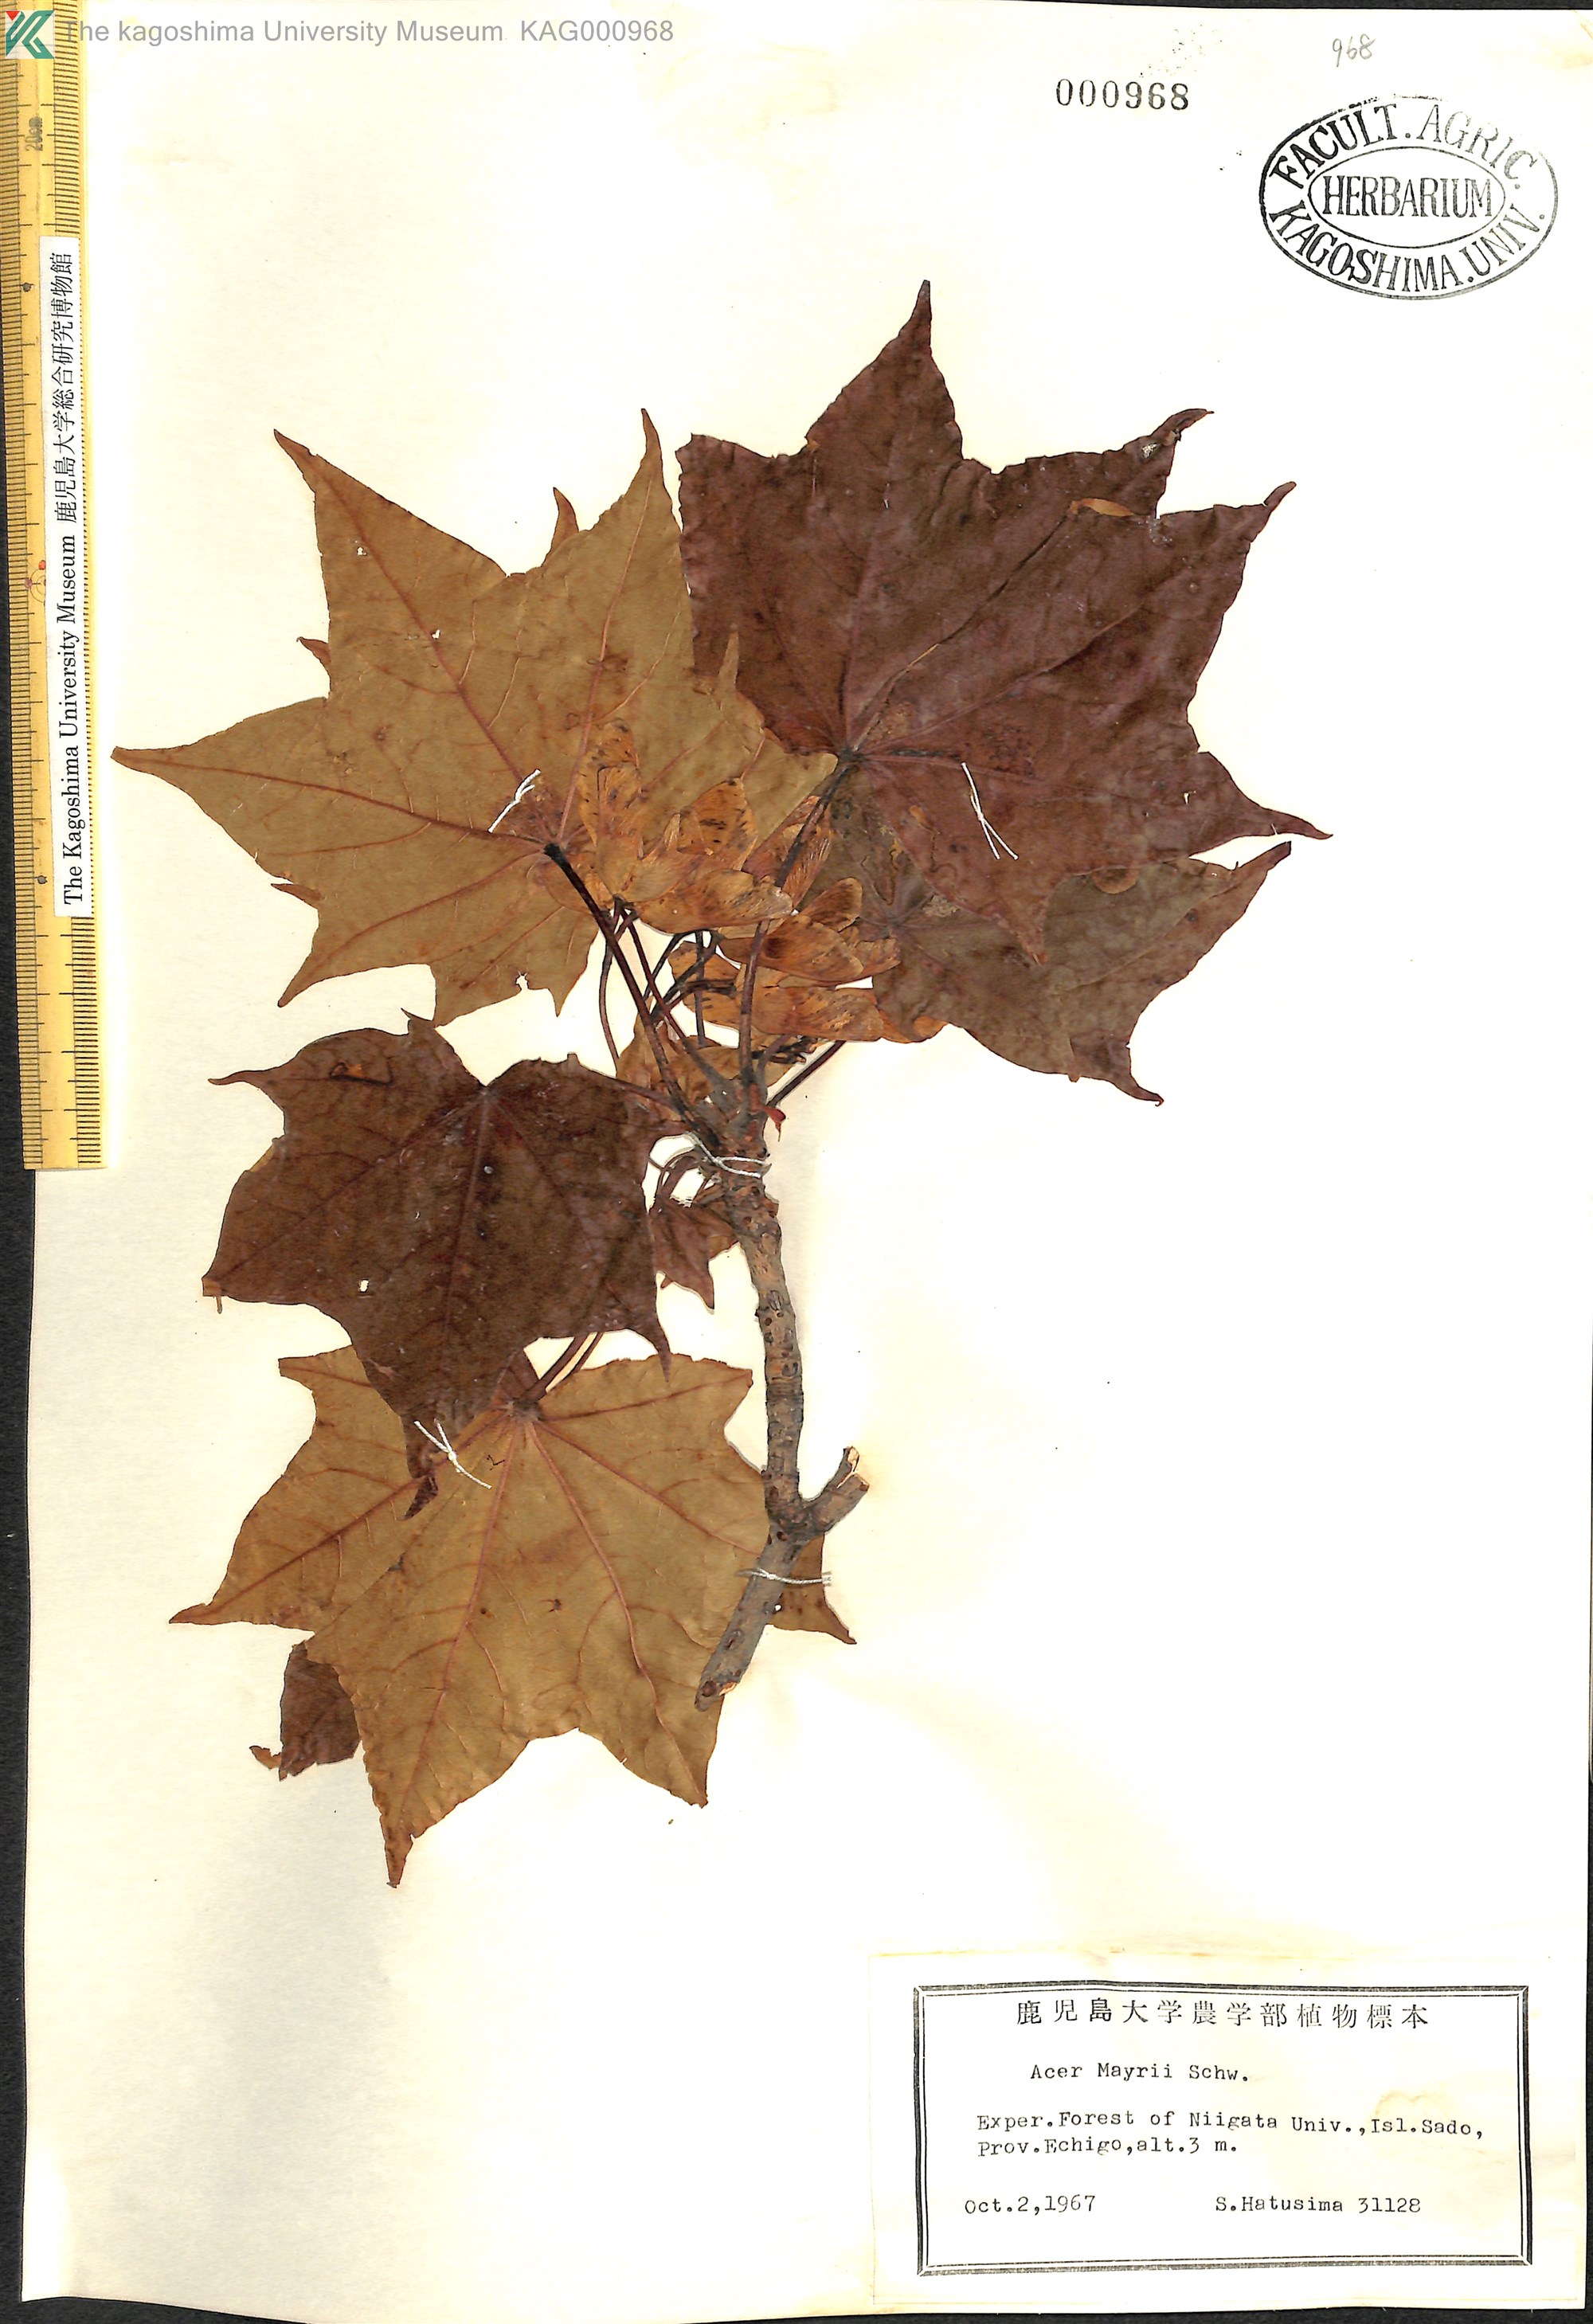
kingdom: Plantae
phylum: Tracheophyta
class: Magnoliopsida
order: Sapindales
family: Sapindaceae
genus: Acer
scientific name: Acer pictum
